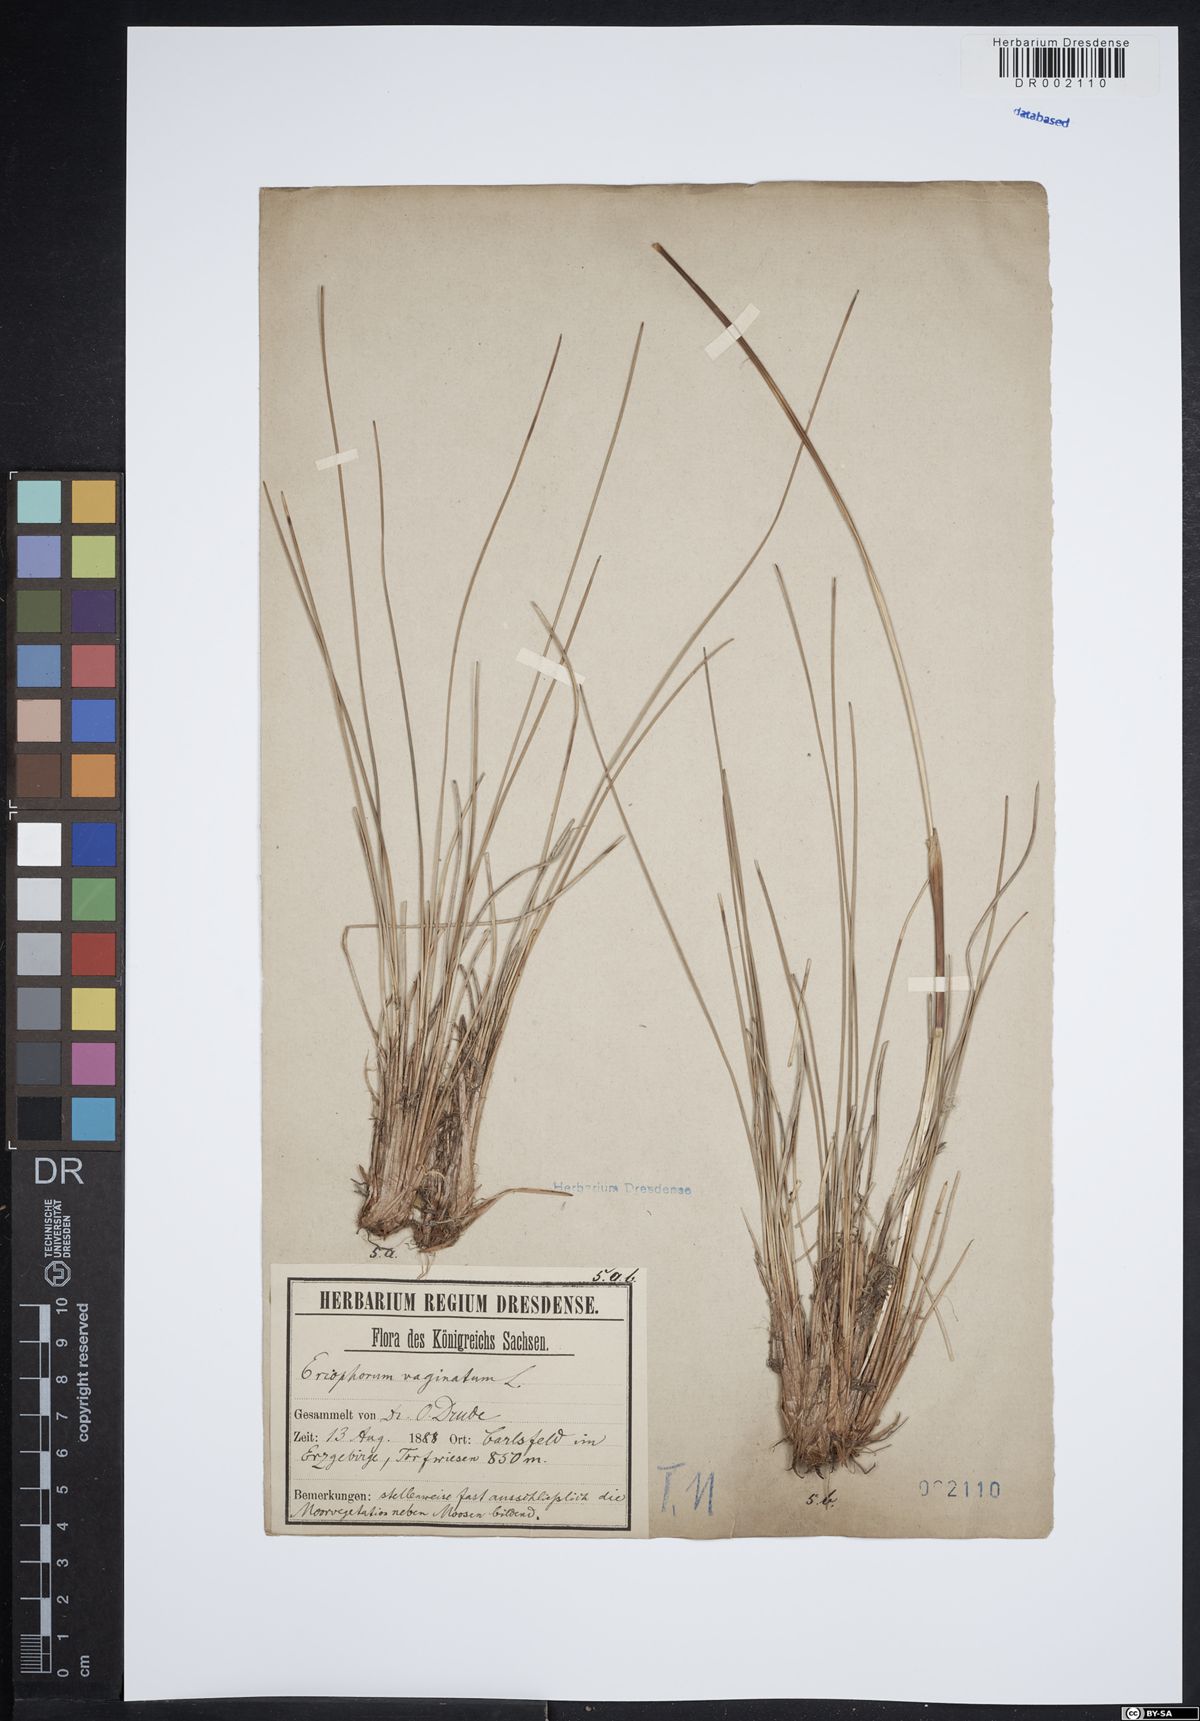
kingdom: Plantae
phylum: Tracheophyta
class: Liliopsida
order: Poales
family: Cyperaceae
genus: Eriophorum
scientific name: Eriophorum vaginatum
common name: Hare's-tail cottongrass
